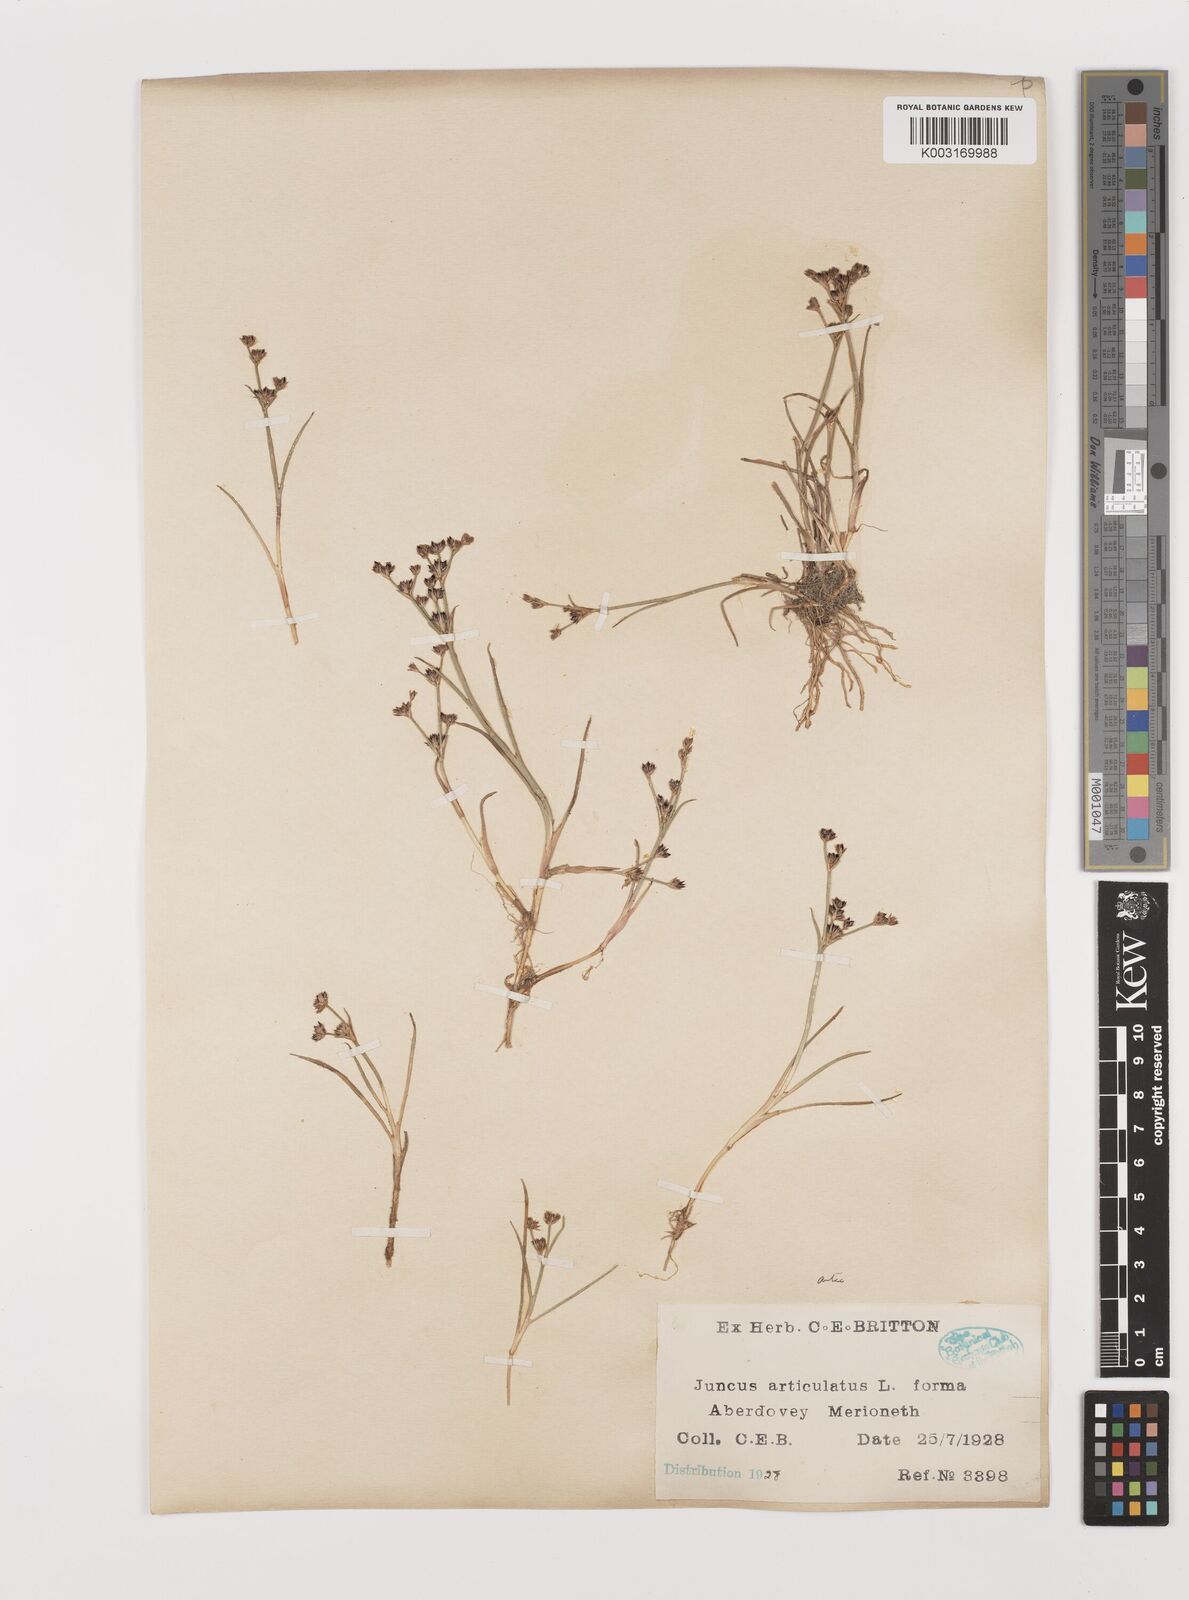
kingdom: Plantae
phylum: Tracheophyta
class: Liliopsida
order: Poales
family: Juncaceae
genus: Juncus
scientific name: Juncus articulatus
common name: Jointed rush
